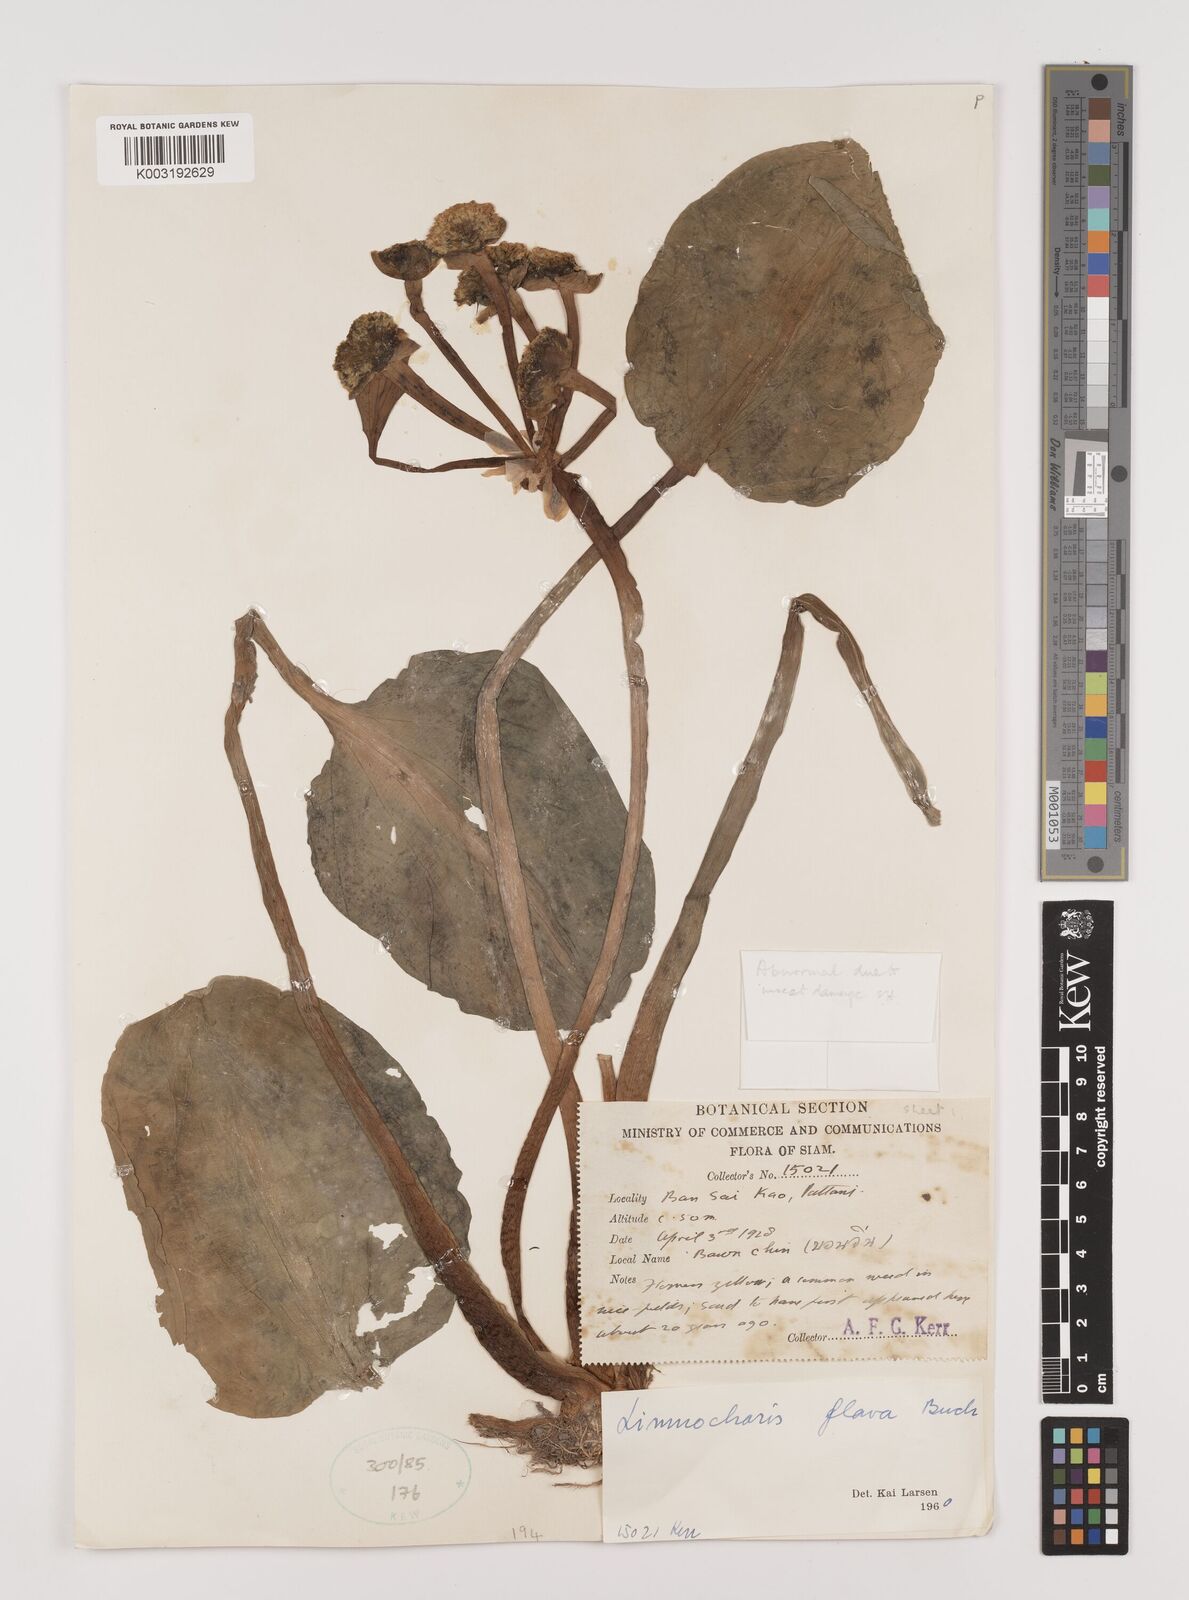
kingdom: Plantae
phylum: Tracheophyta
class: Liliopsida
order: Alismatales
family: Alismataceae
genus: Limnocharis
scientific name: Limnocharis flava
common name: Sawah-flower-rush
